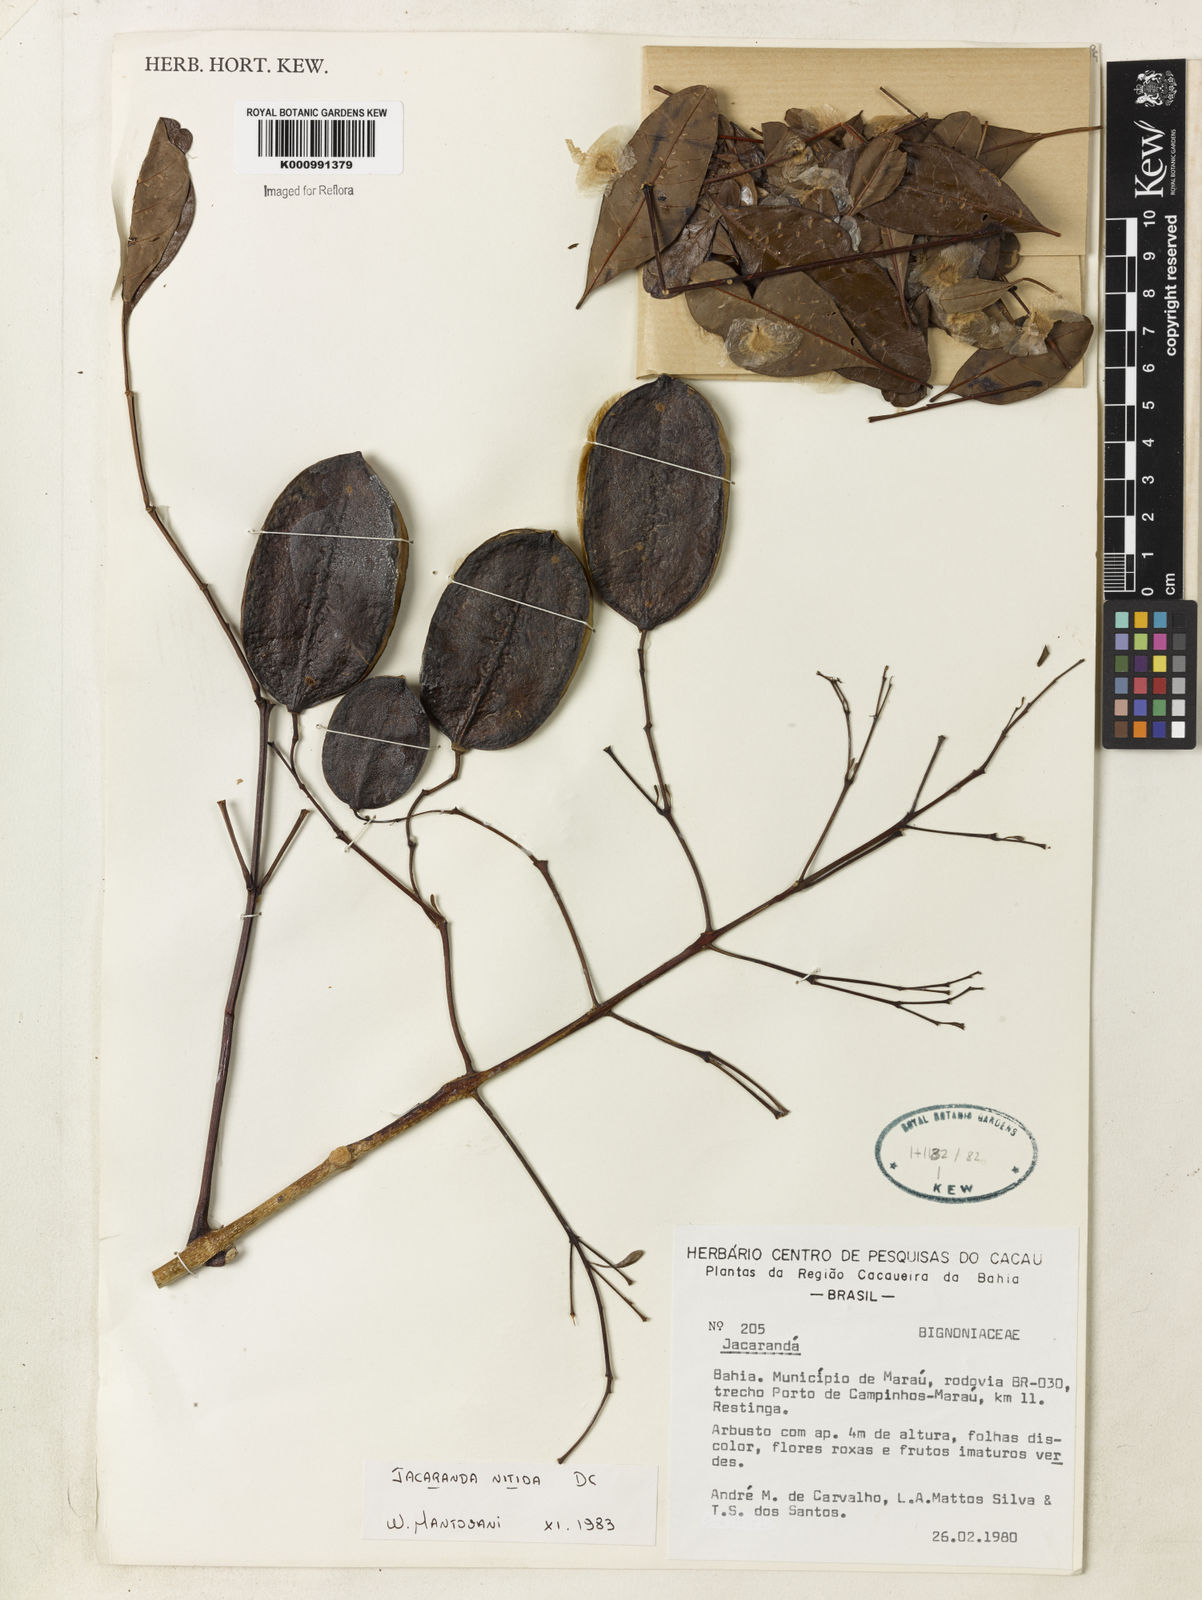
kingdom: Plantae
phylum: Tracheophyta
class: Magnoliopsida
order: Lamiales
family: Bignoniaceae
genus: Jacaranda
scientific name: Jacaranda obovata
